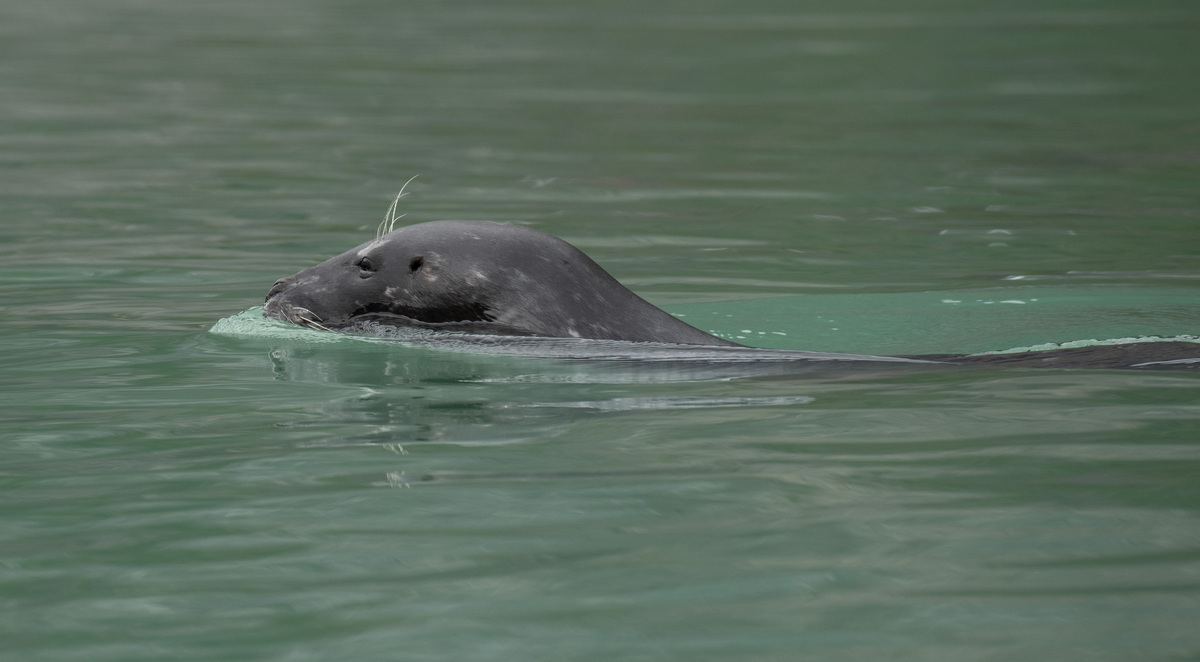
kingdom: Animalia
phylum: Chordata
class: Mammalia
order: Carnivora
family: Phocidae
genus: Phoca
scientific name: Phoca vitulina
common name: Harbor seal
